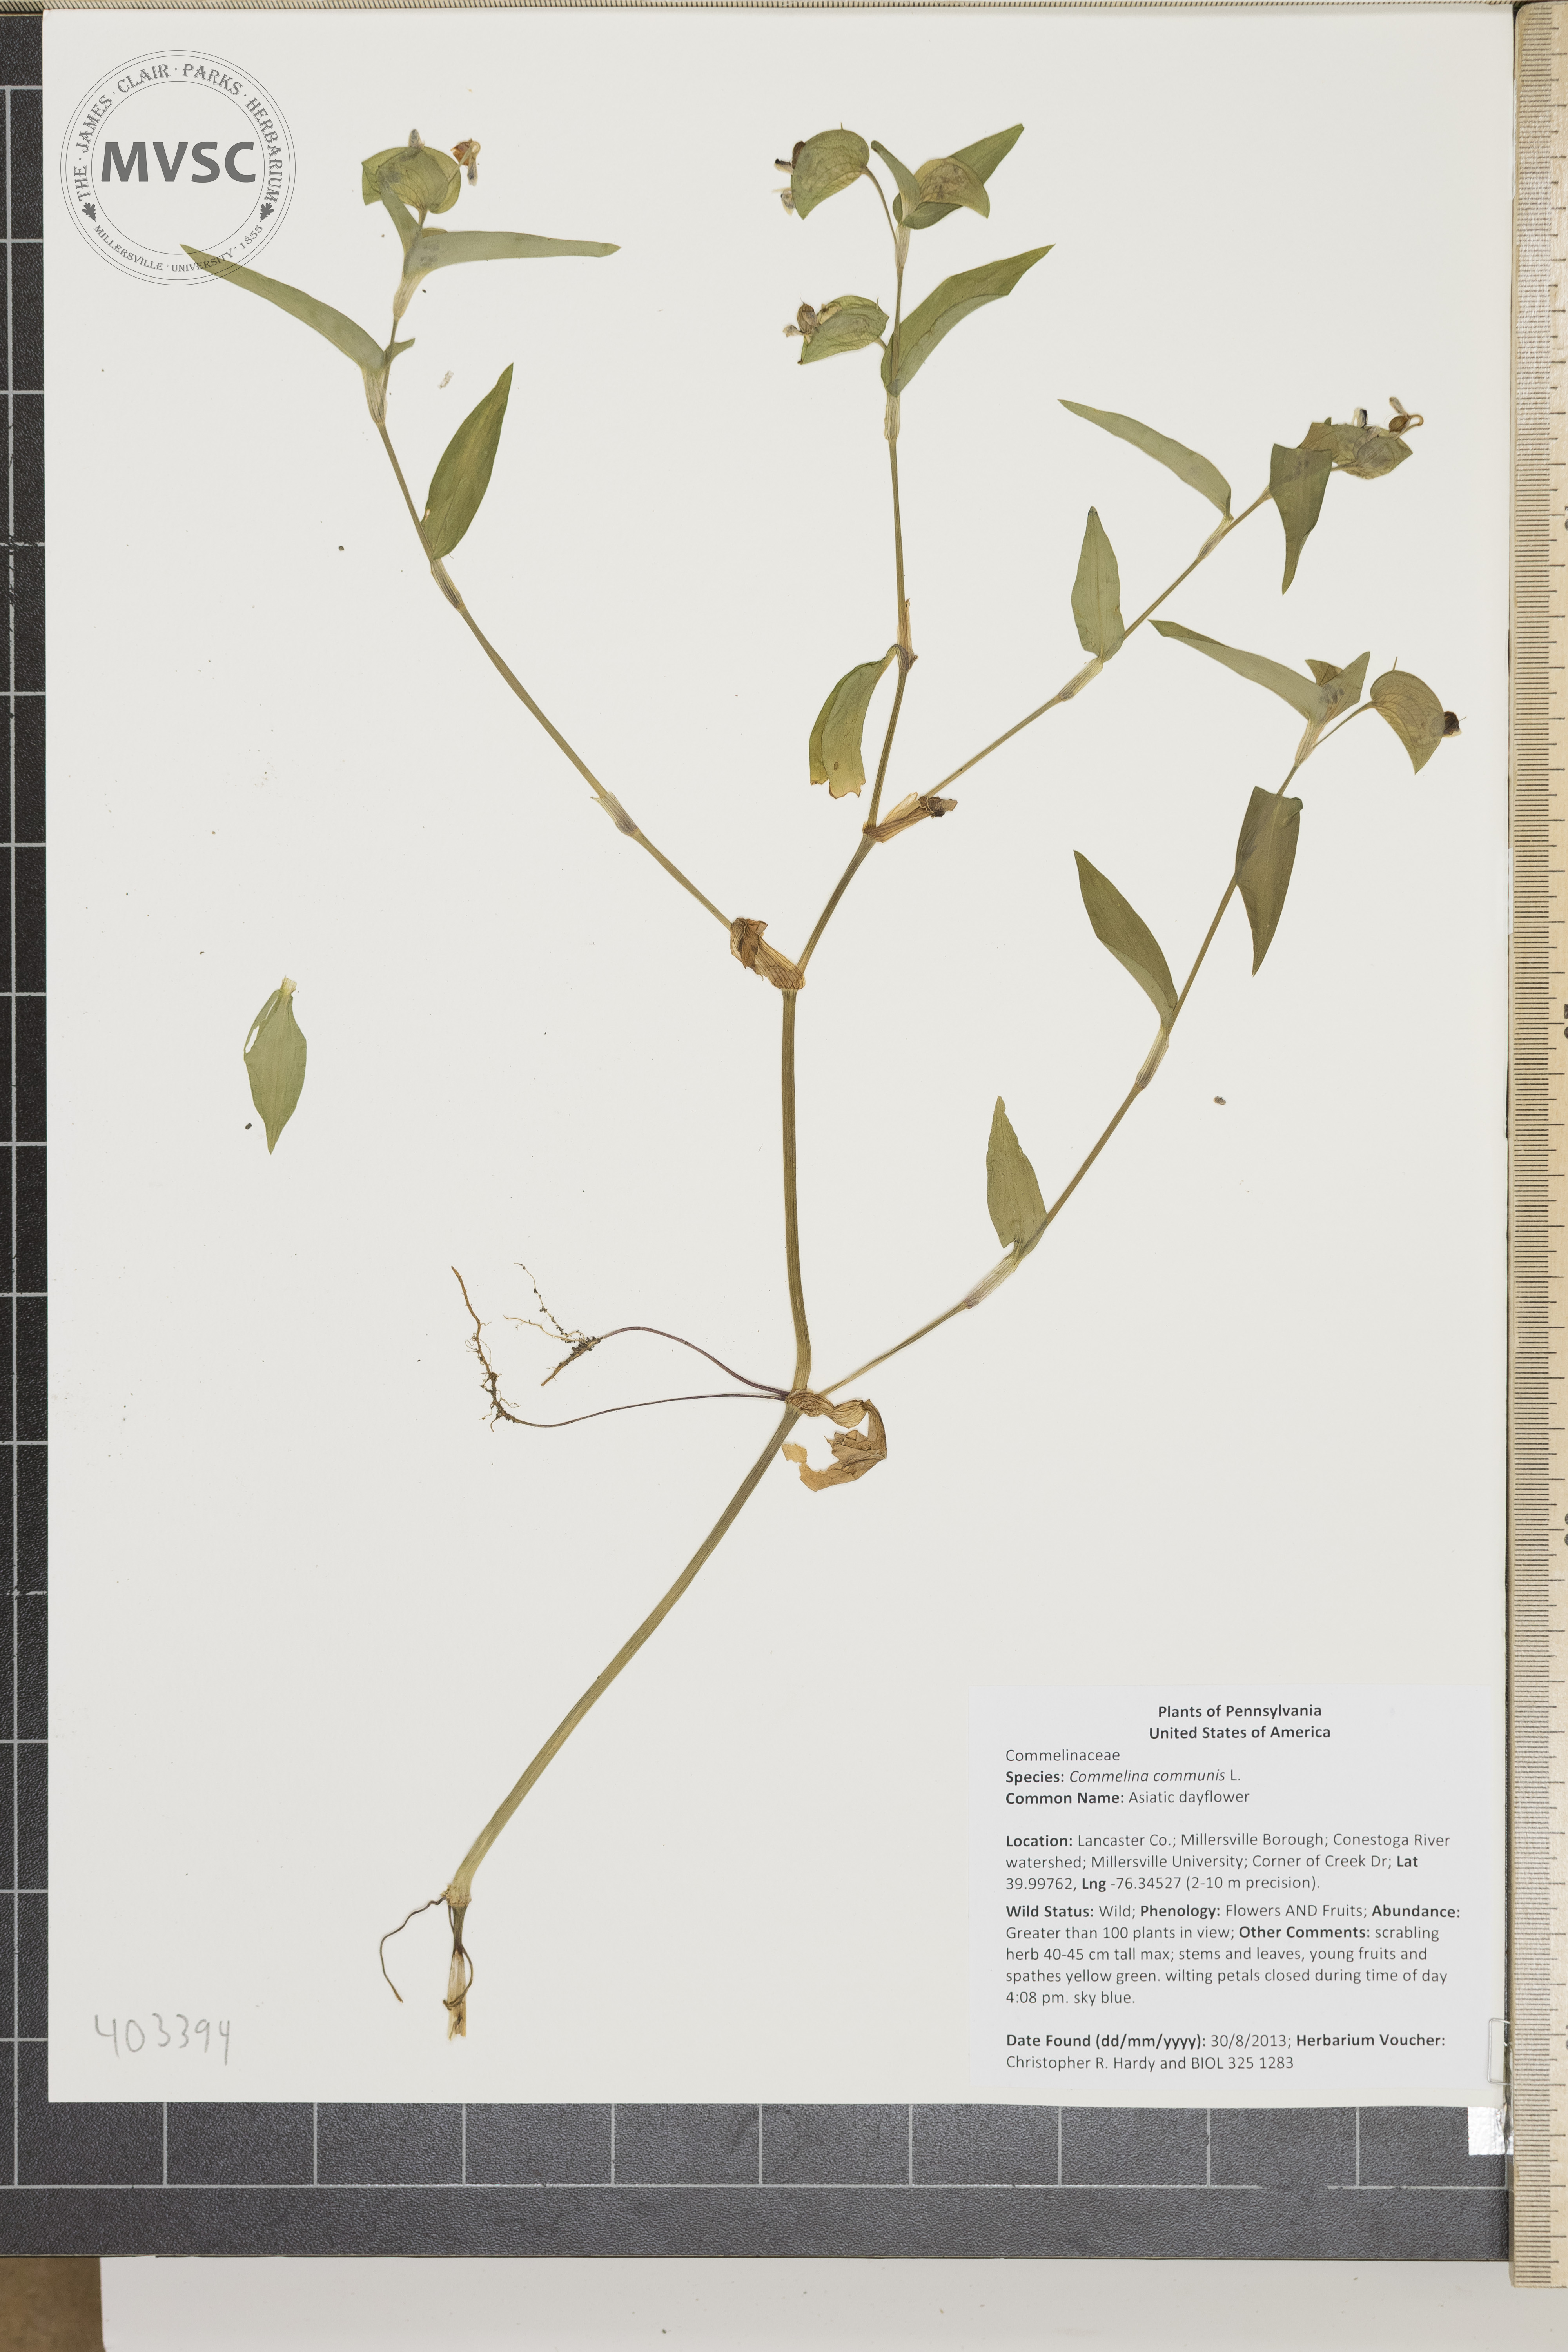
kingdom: Plantae
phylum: Tracheophyta
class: Liliopsida
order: Commelinales
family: Commelinaceae
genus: Commelina
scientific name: Commelina communis
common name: Asiatic dayflower
